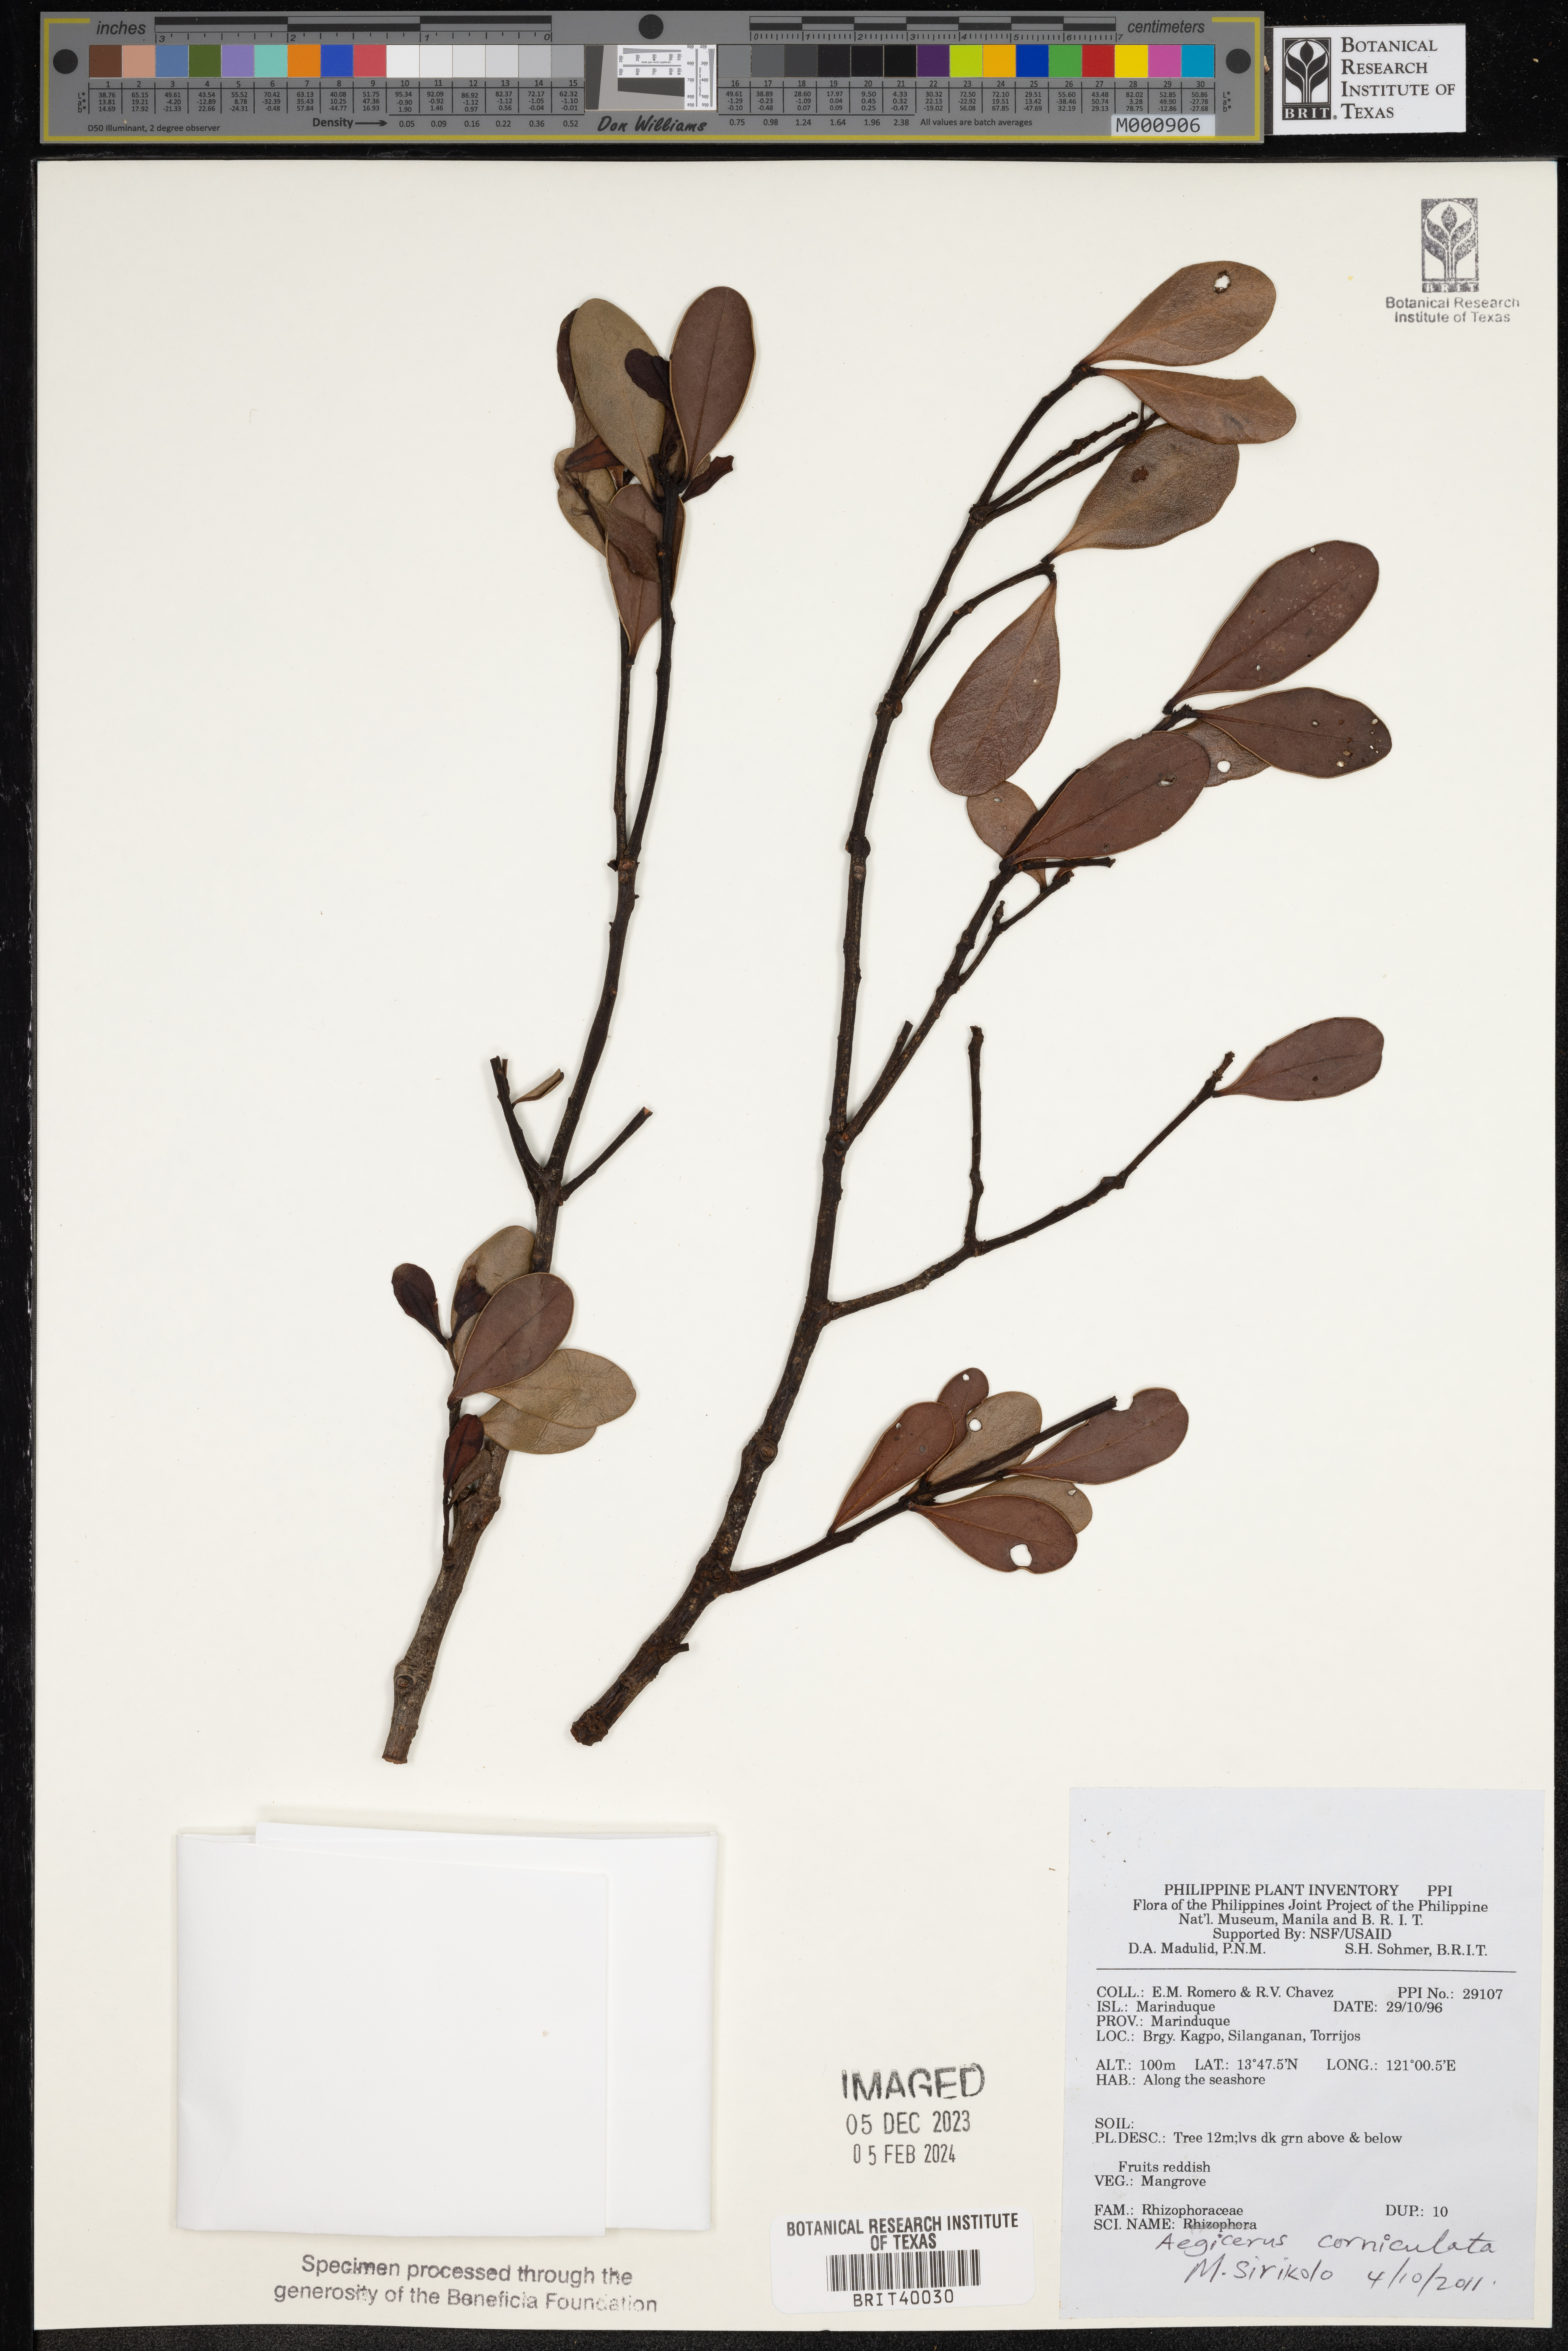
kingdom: Plantae
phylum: Tracheophyta
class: Magnoliopsida
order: Ericales
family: Primulaceae
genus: Aegiceras
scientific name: Aegiceras corniculatum
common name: River mangrove
